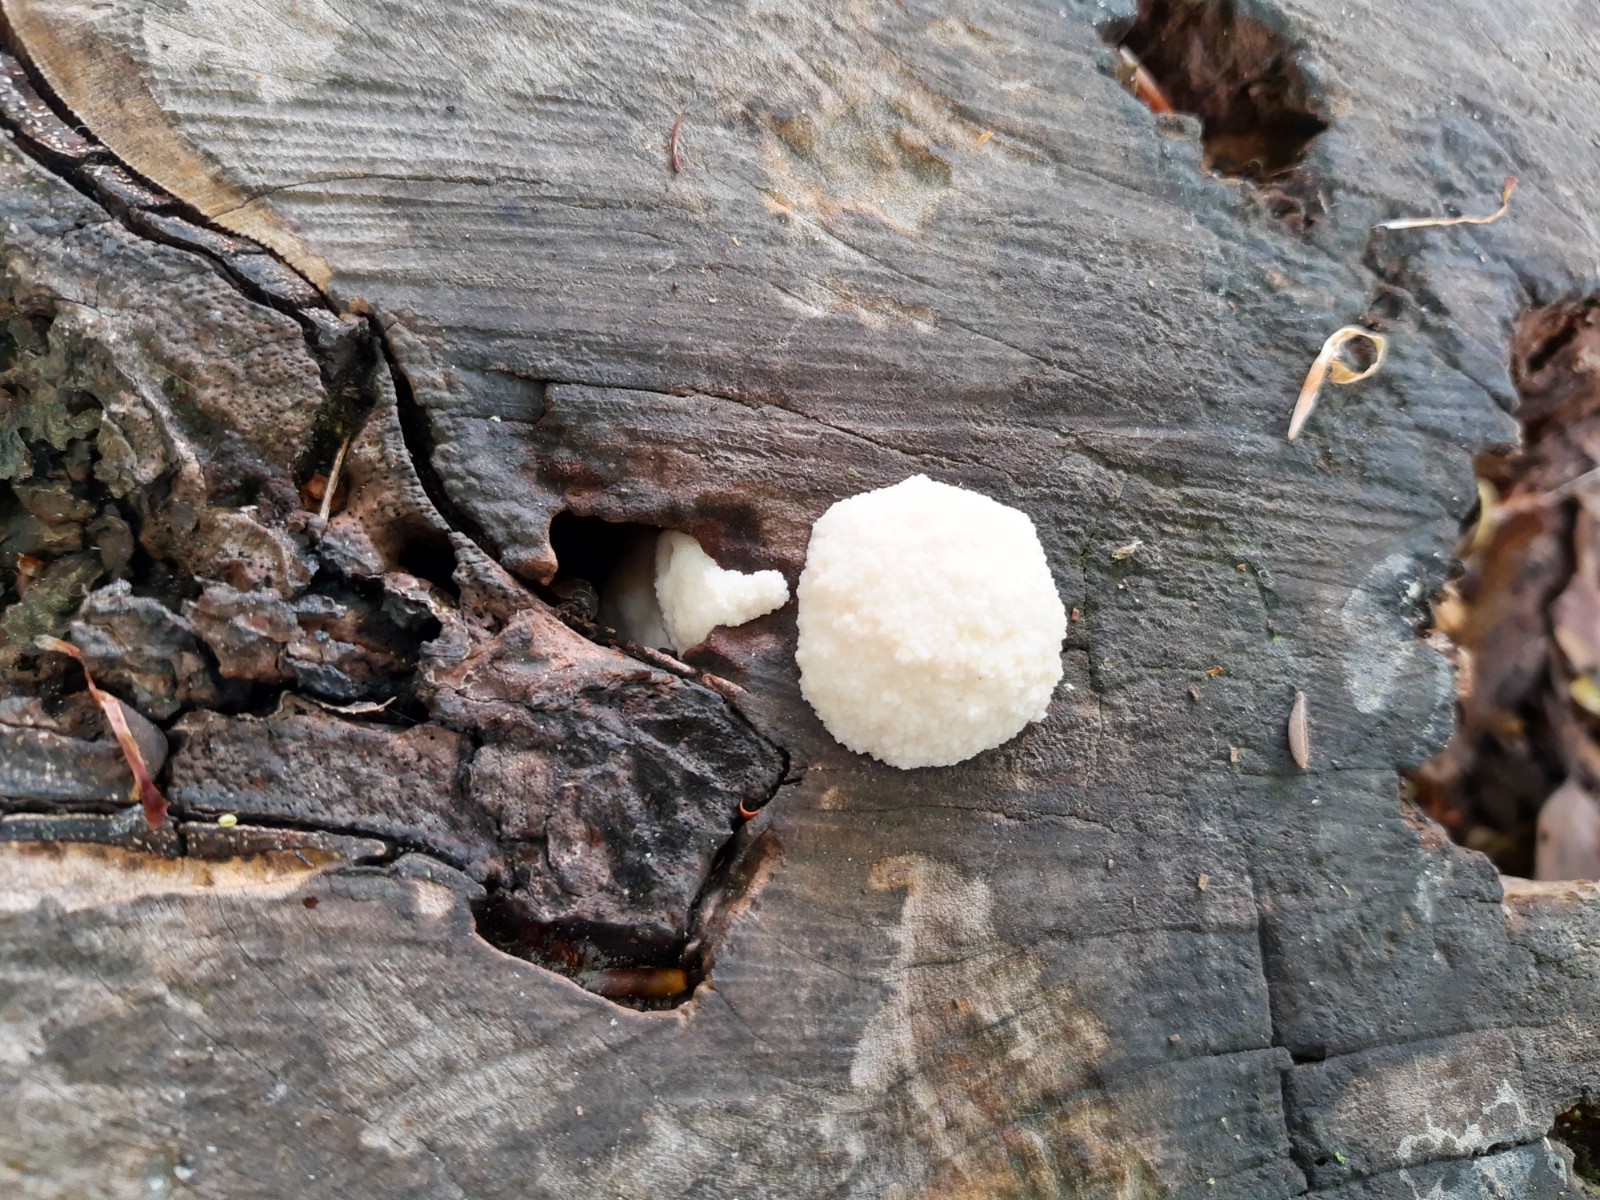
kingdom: Protozoa
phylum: Mycetozoa
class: Myxomycetes
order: Cribrariales
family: Tubiferaceae
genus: Reticularia
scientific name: Reticularia lycoperdon
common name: skinnende støvpude
